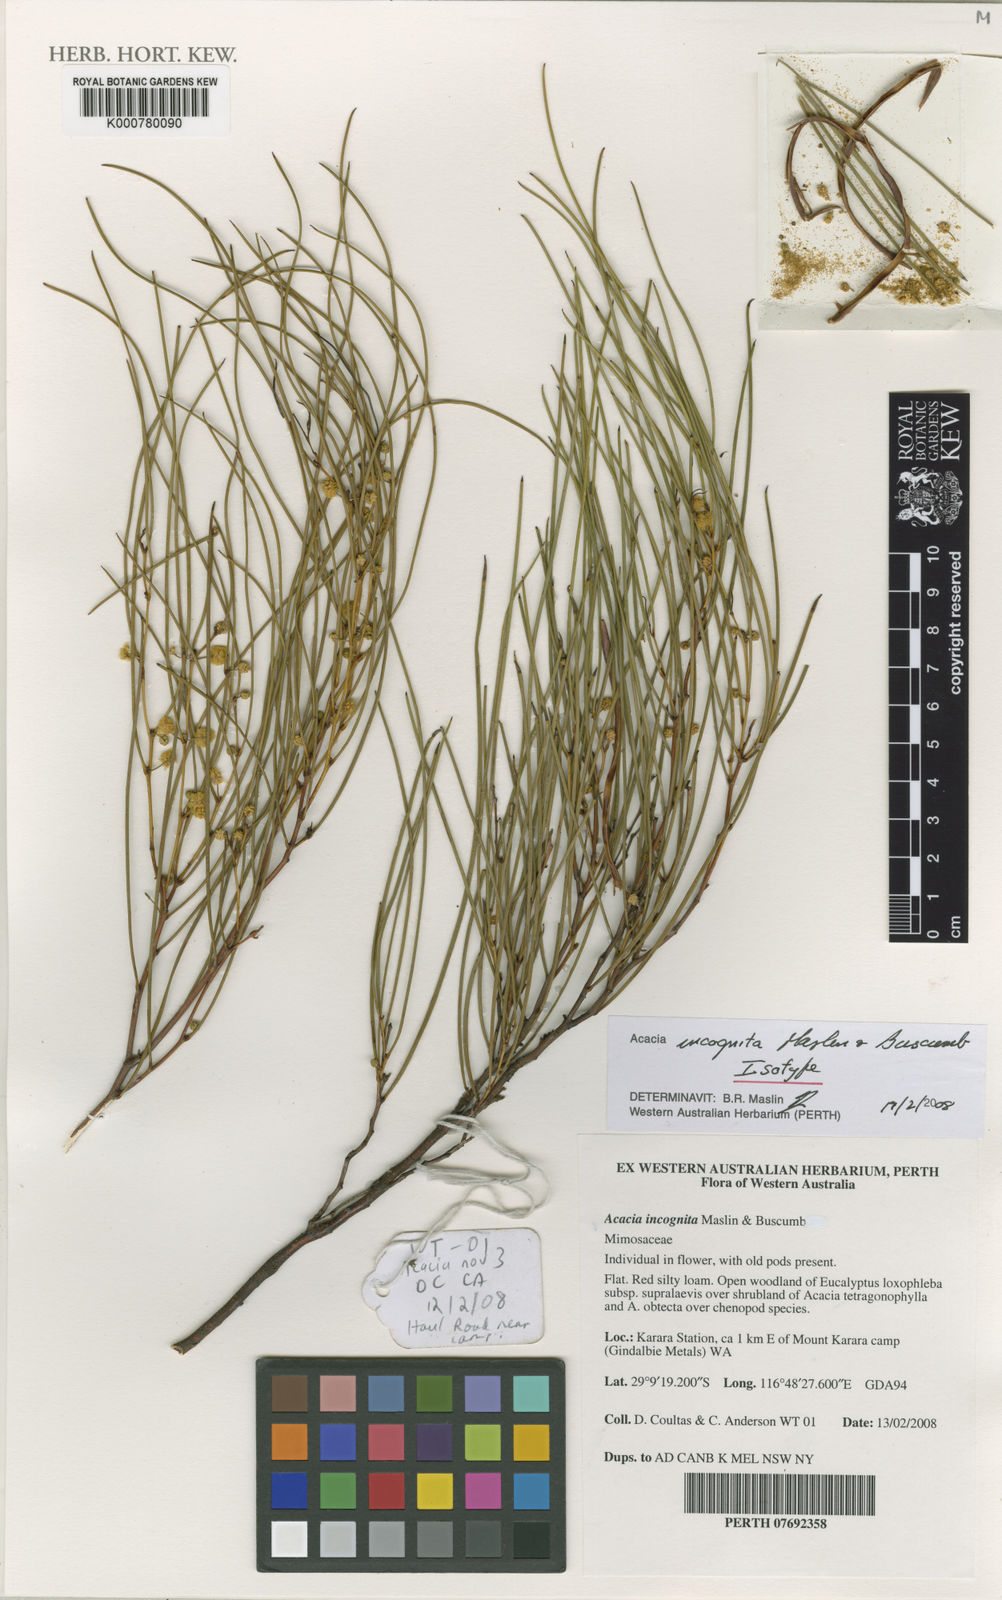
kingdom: Plantae
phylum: Tracheophyta
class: Magnoliopsida
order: Fabales
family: Fabaceae
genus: Acacia
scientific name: Acacia incognita
